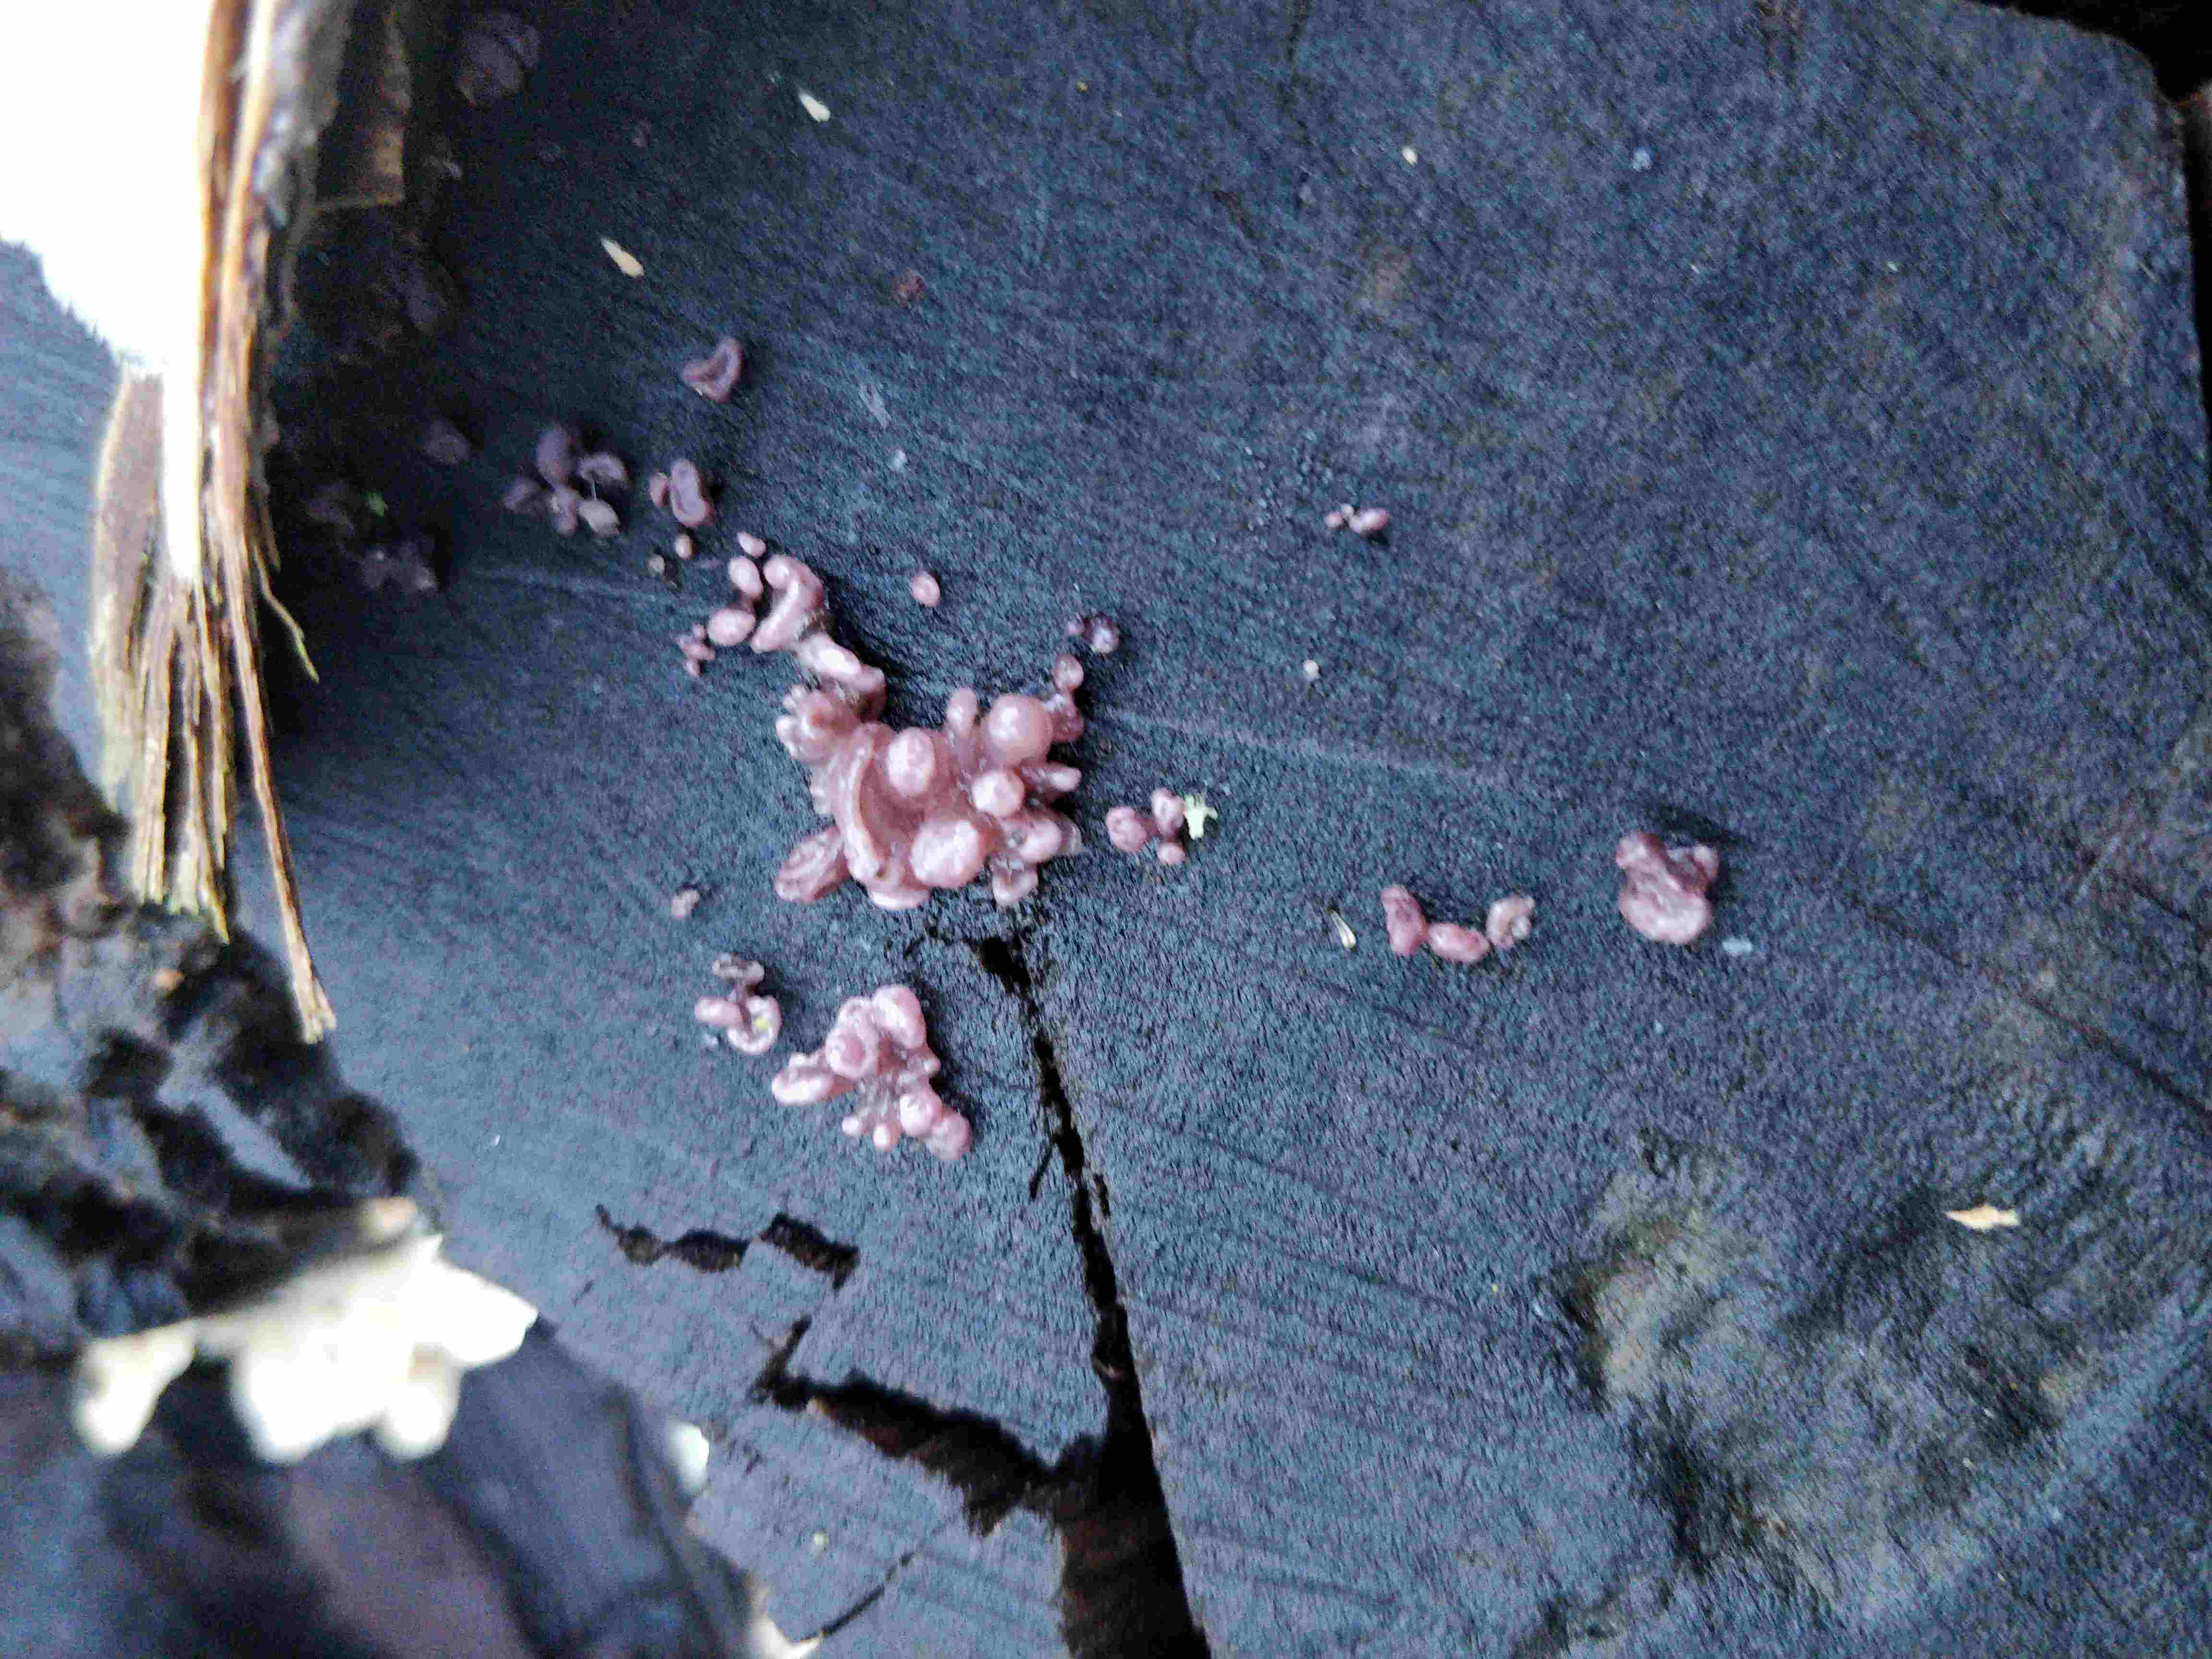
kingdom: Fungi
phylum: Ascomycota
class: Leotiomycetes
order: Helotiales
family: Gelatinodiscaceae
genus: Ascocoryne
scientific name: Ascocoryne sarcoides
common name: rødlilla sejskive
